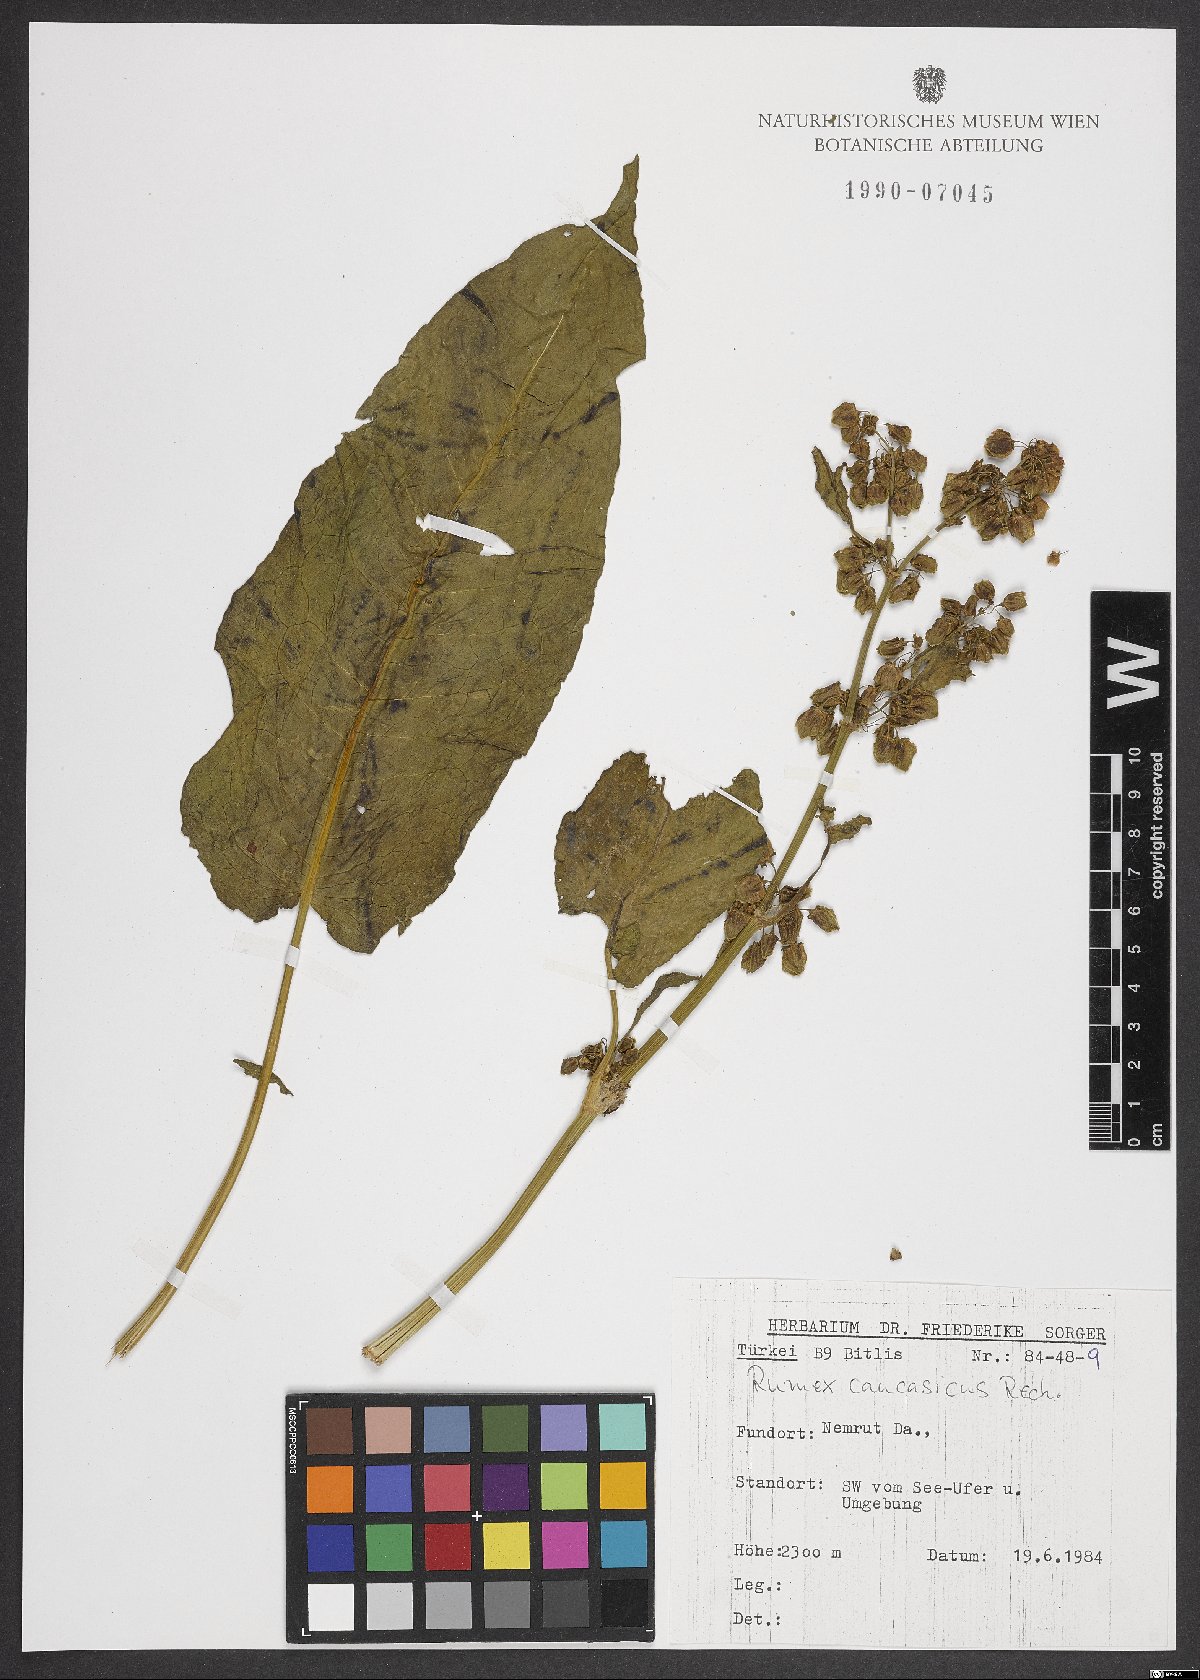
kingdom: Plantae
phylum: Tracheophyta
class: Magnoliopsida
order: Caryophyllales
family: Polygonaceae
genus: Rumex
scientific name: Rumex caucasicus
